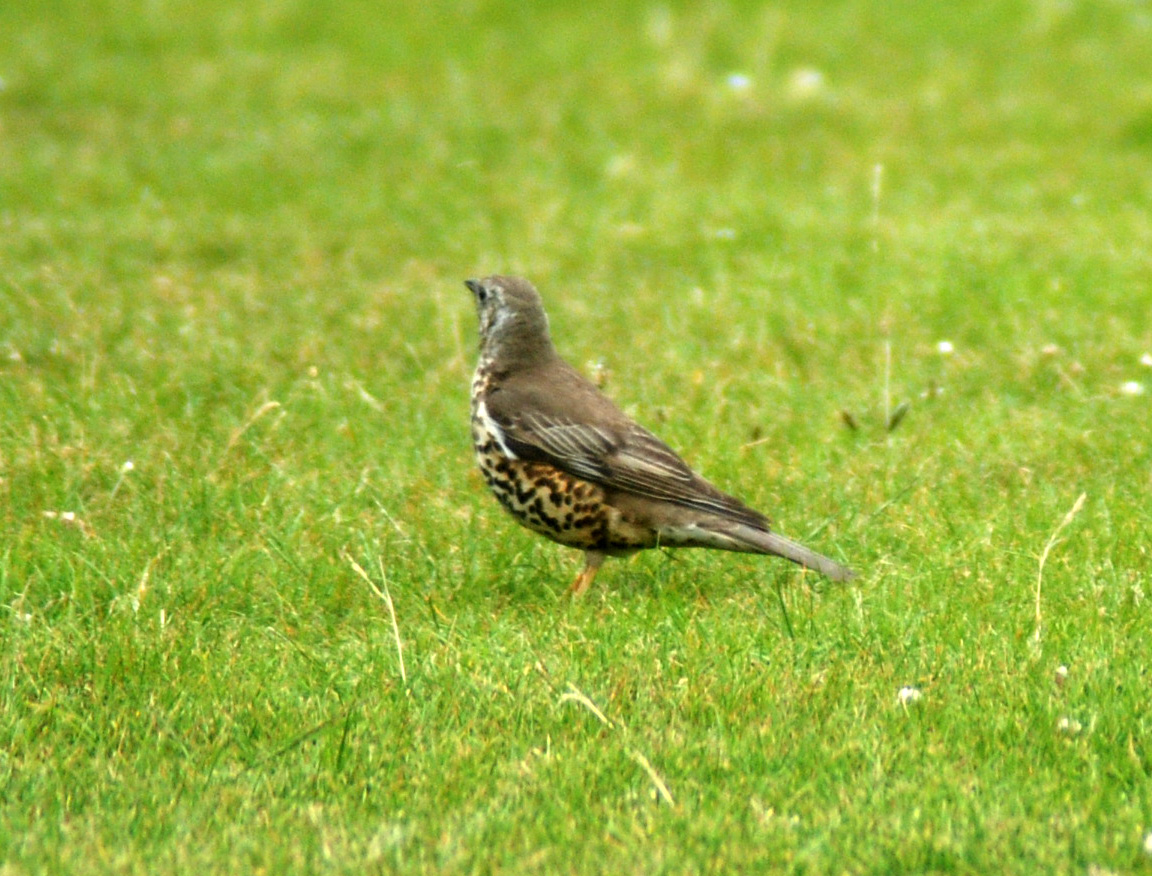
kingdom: Animalia
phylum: Chordata
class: Aves
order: Passeriformes
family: Turdidae
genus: Turdus
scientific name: Turdus viscivorus
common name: Mistle thrush
